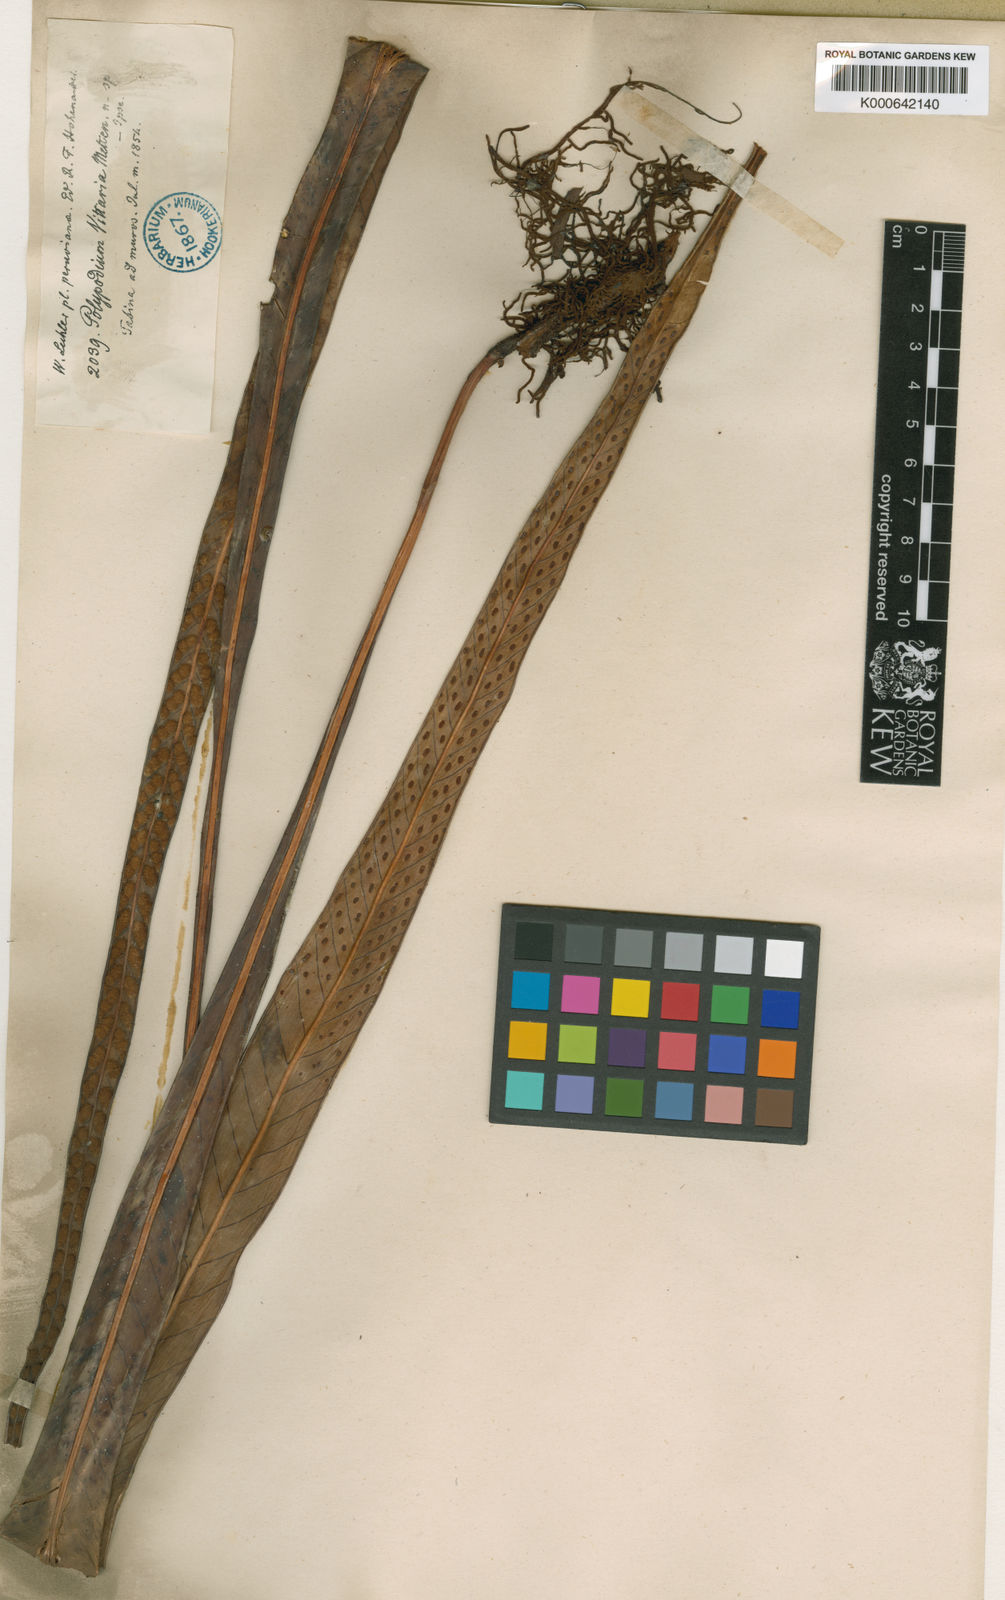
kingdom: Plantae
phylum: Tracheophyta
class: Polypodiopsida
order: Polypodiales
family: Polypodiaceae
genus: Niphidium
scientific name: Niphidium vittaria
